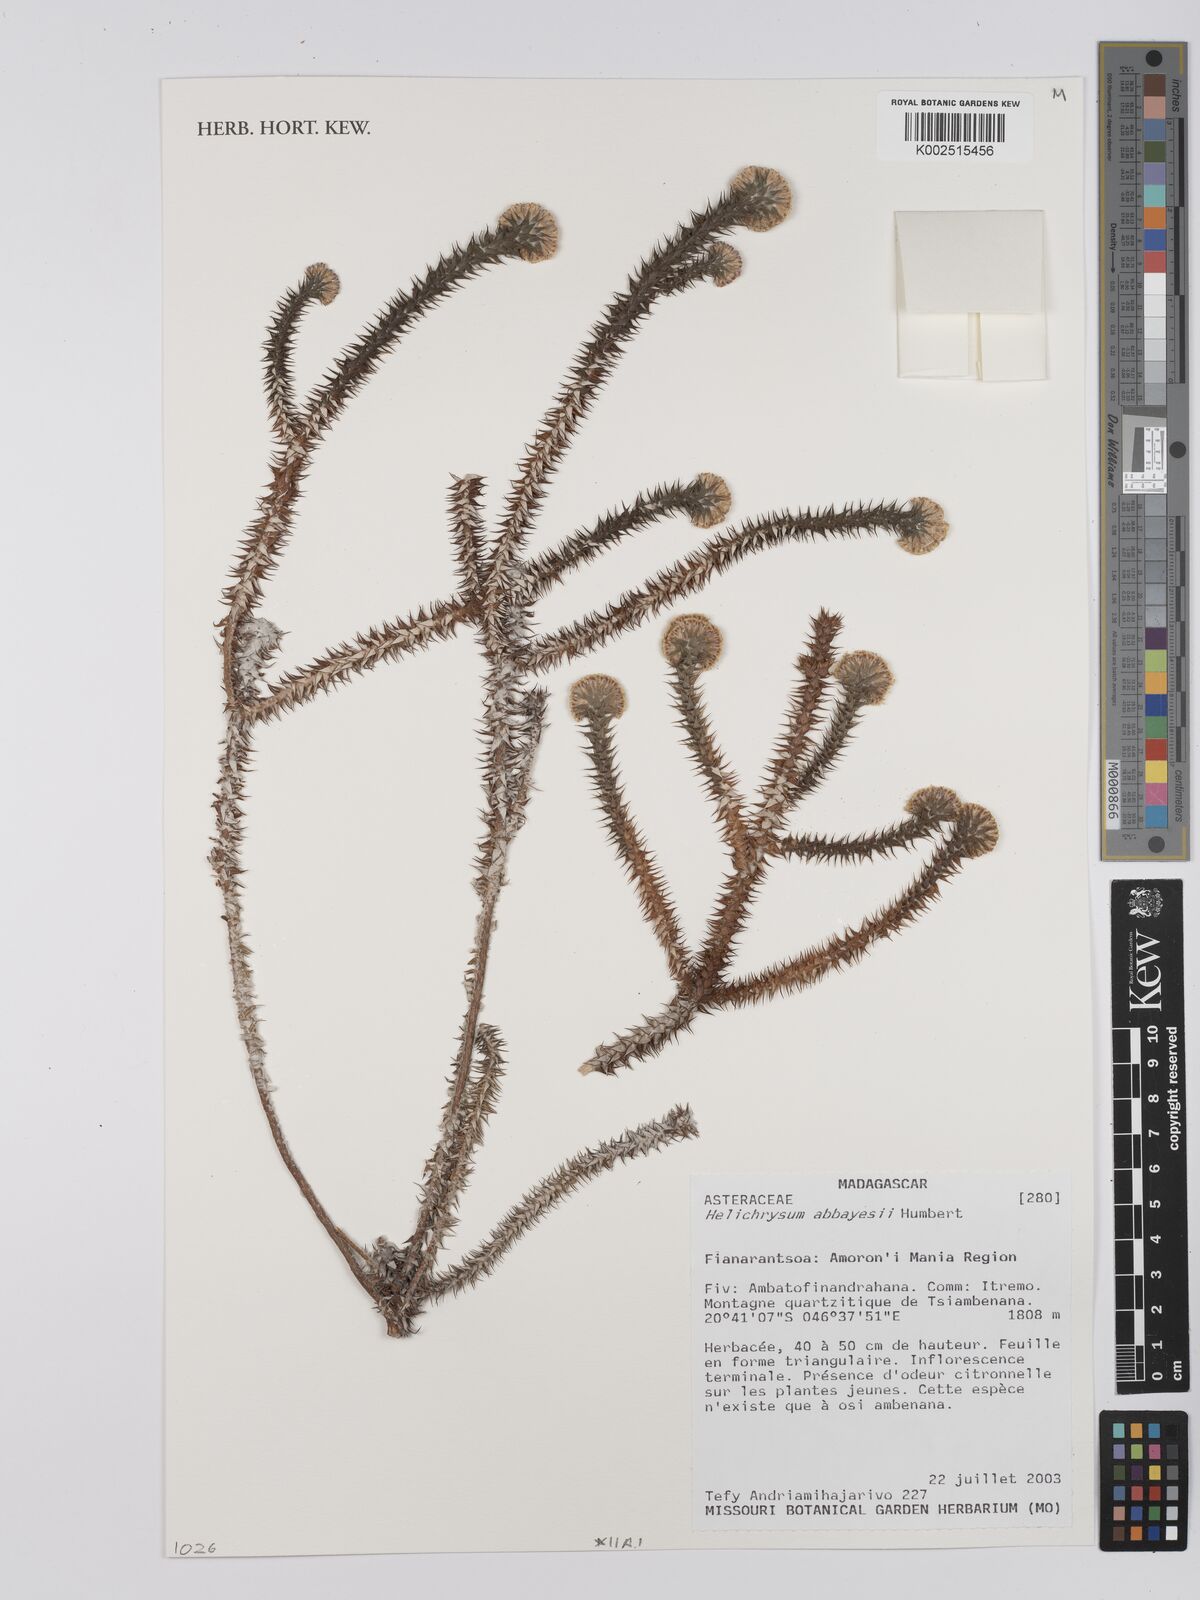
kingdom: Plantae
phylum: Tracheophyta
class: Magnoliopsida
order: Asterales
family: Asteraceae
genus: Helichrysum
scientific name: Helichrysum abbayesii
